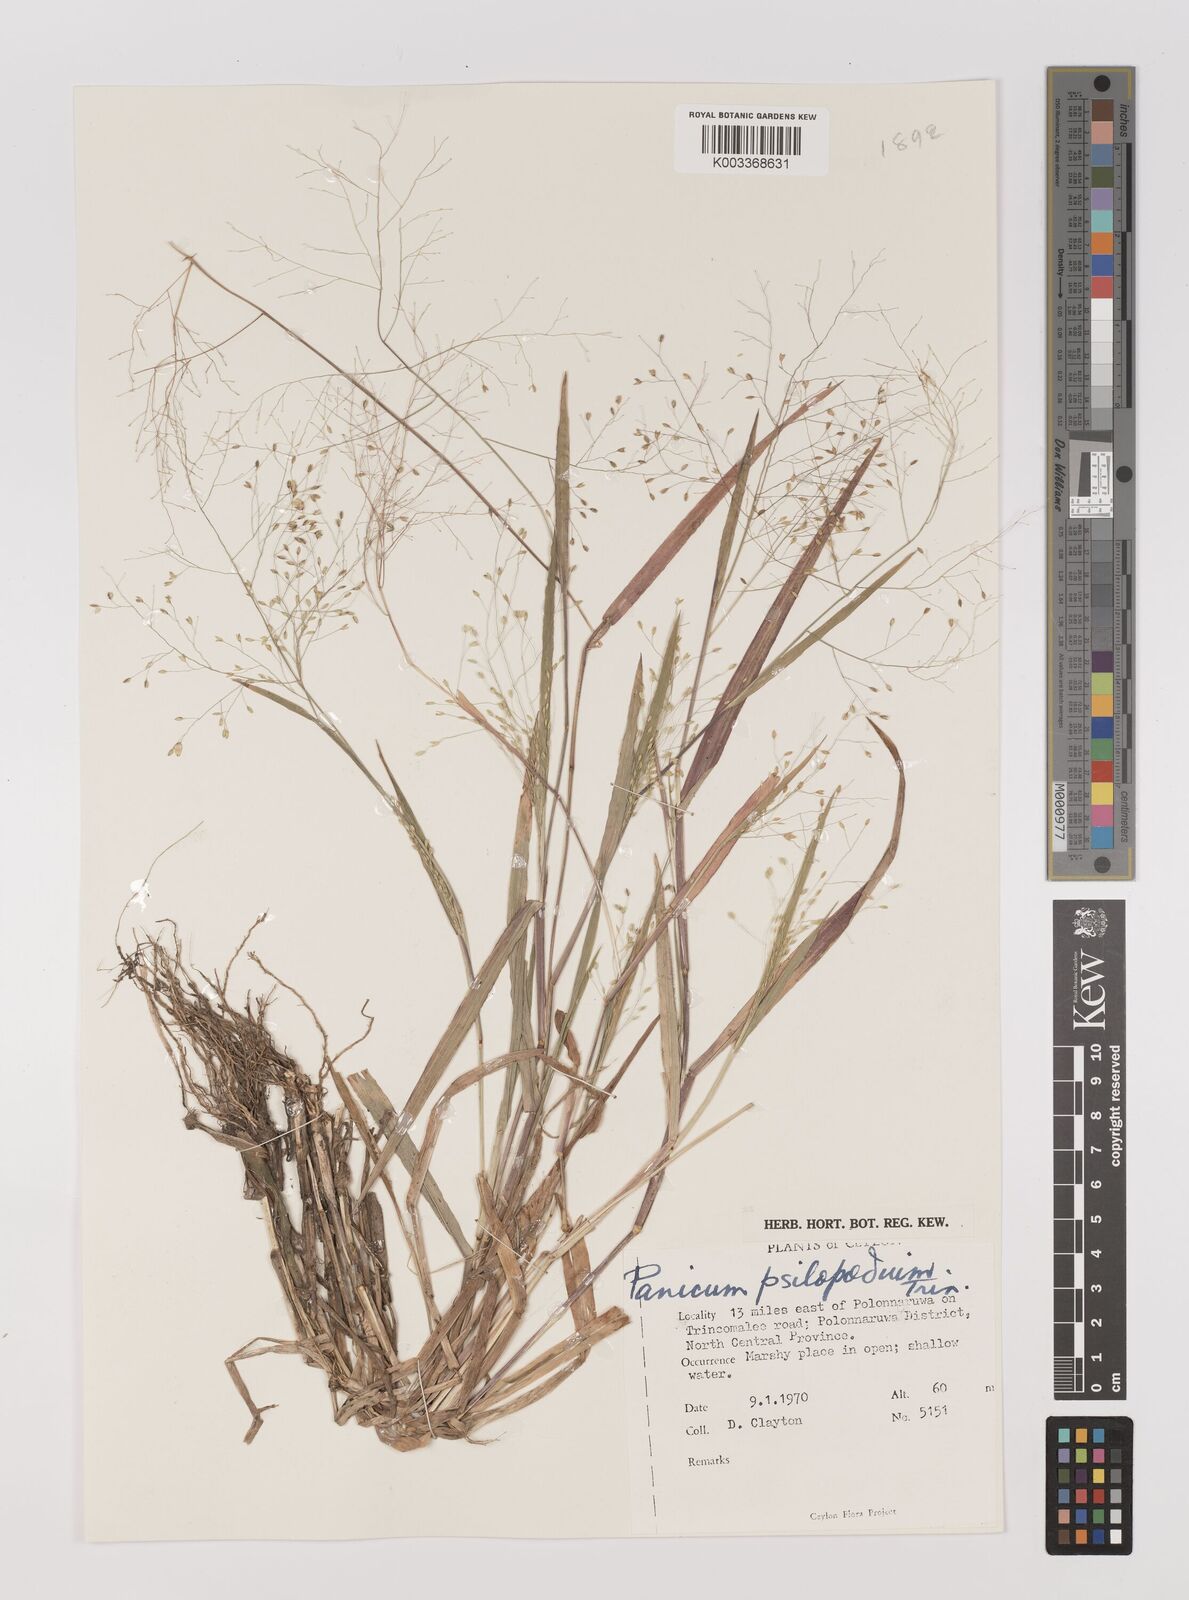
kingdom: Plantae
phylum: Tracheophyta
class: Liliopsida
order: Poales
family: Poaceae
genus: Panicum
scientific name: Panicum sumatrense
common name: Little millet
